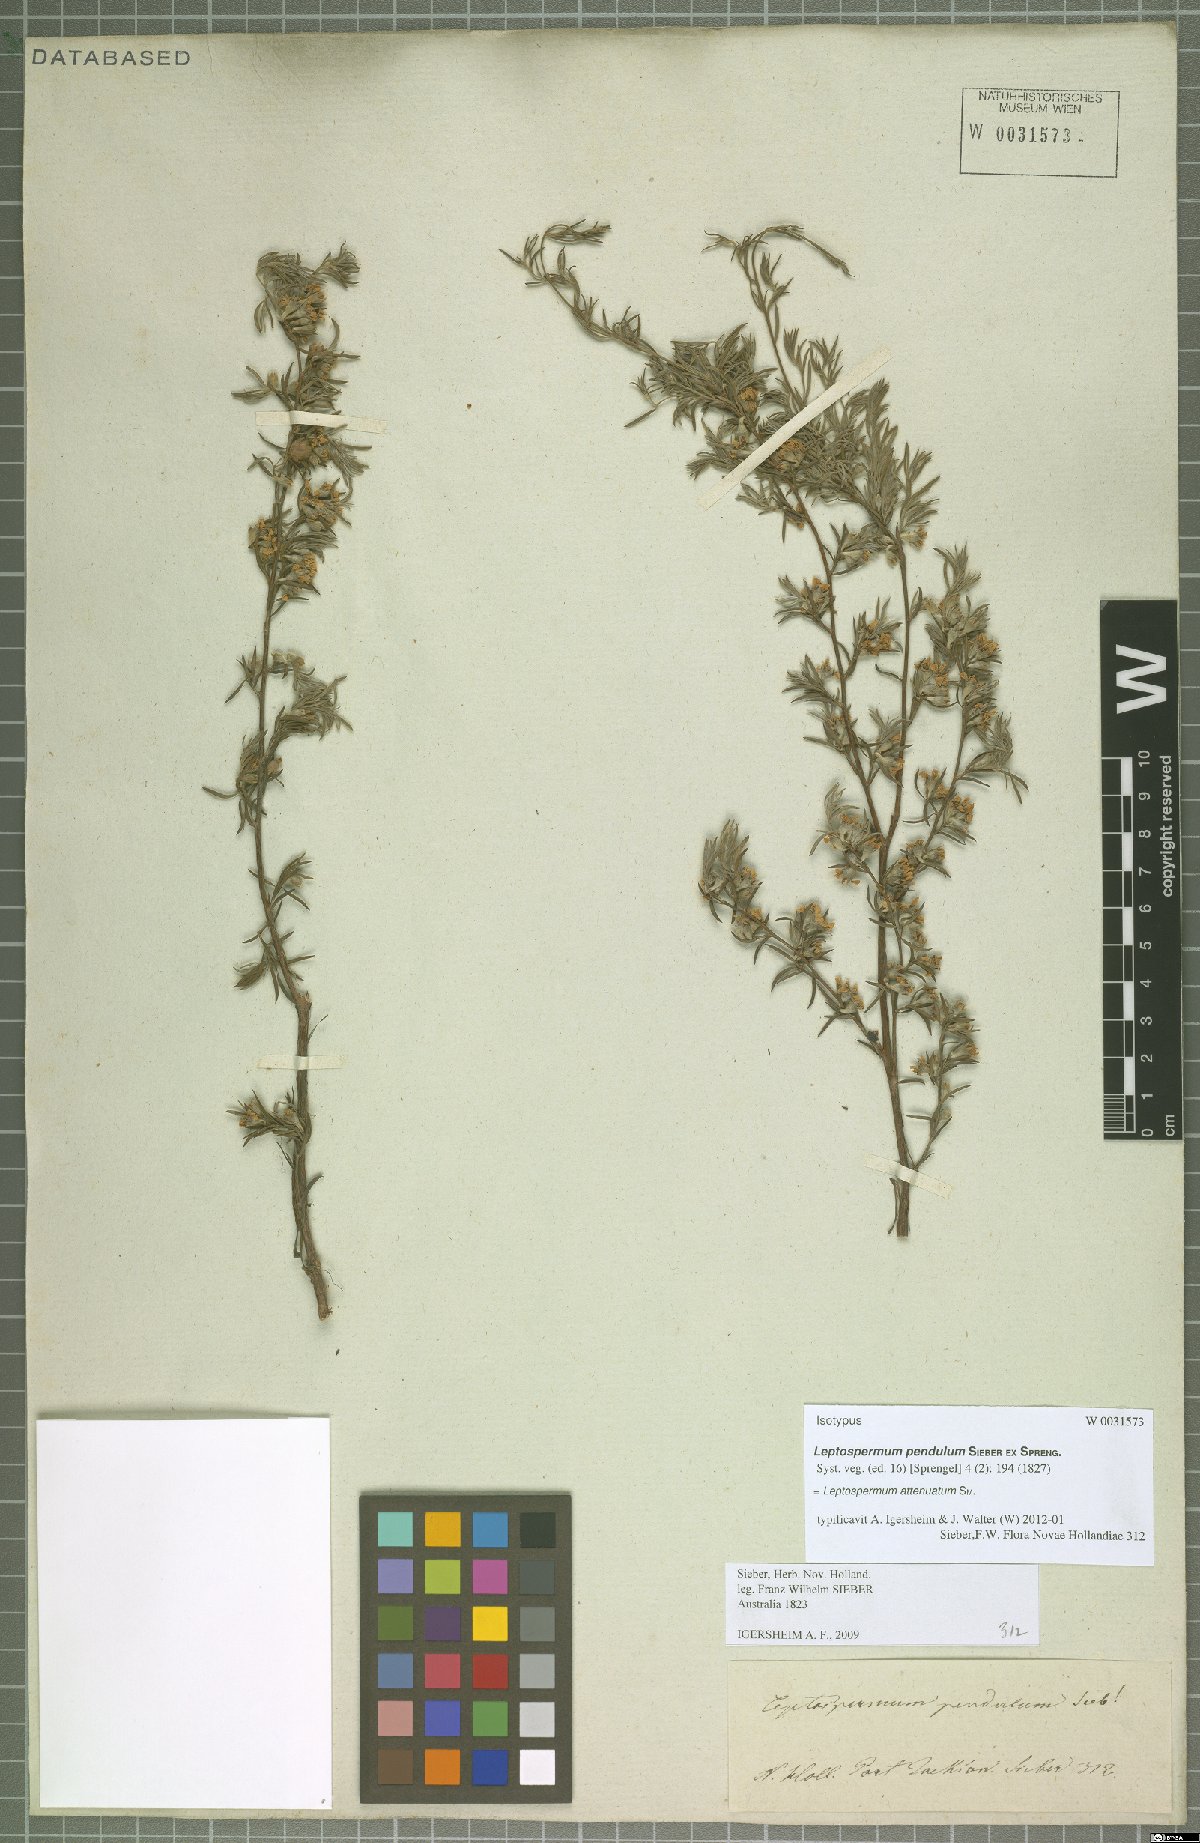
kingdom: Plantae
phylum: Tracheophyta
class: Magnoliopsida
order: Myrtales
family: Myrtaceae
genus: Leptospermum
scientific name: Leptospermum trinervium
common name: Flaky-barked tea-tree
